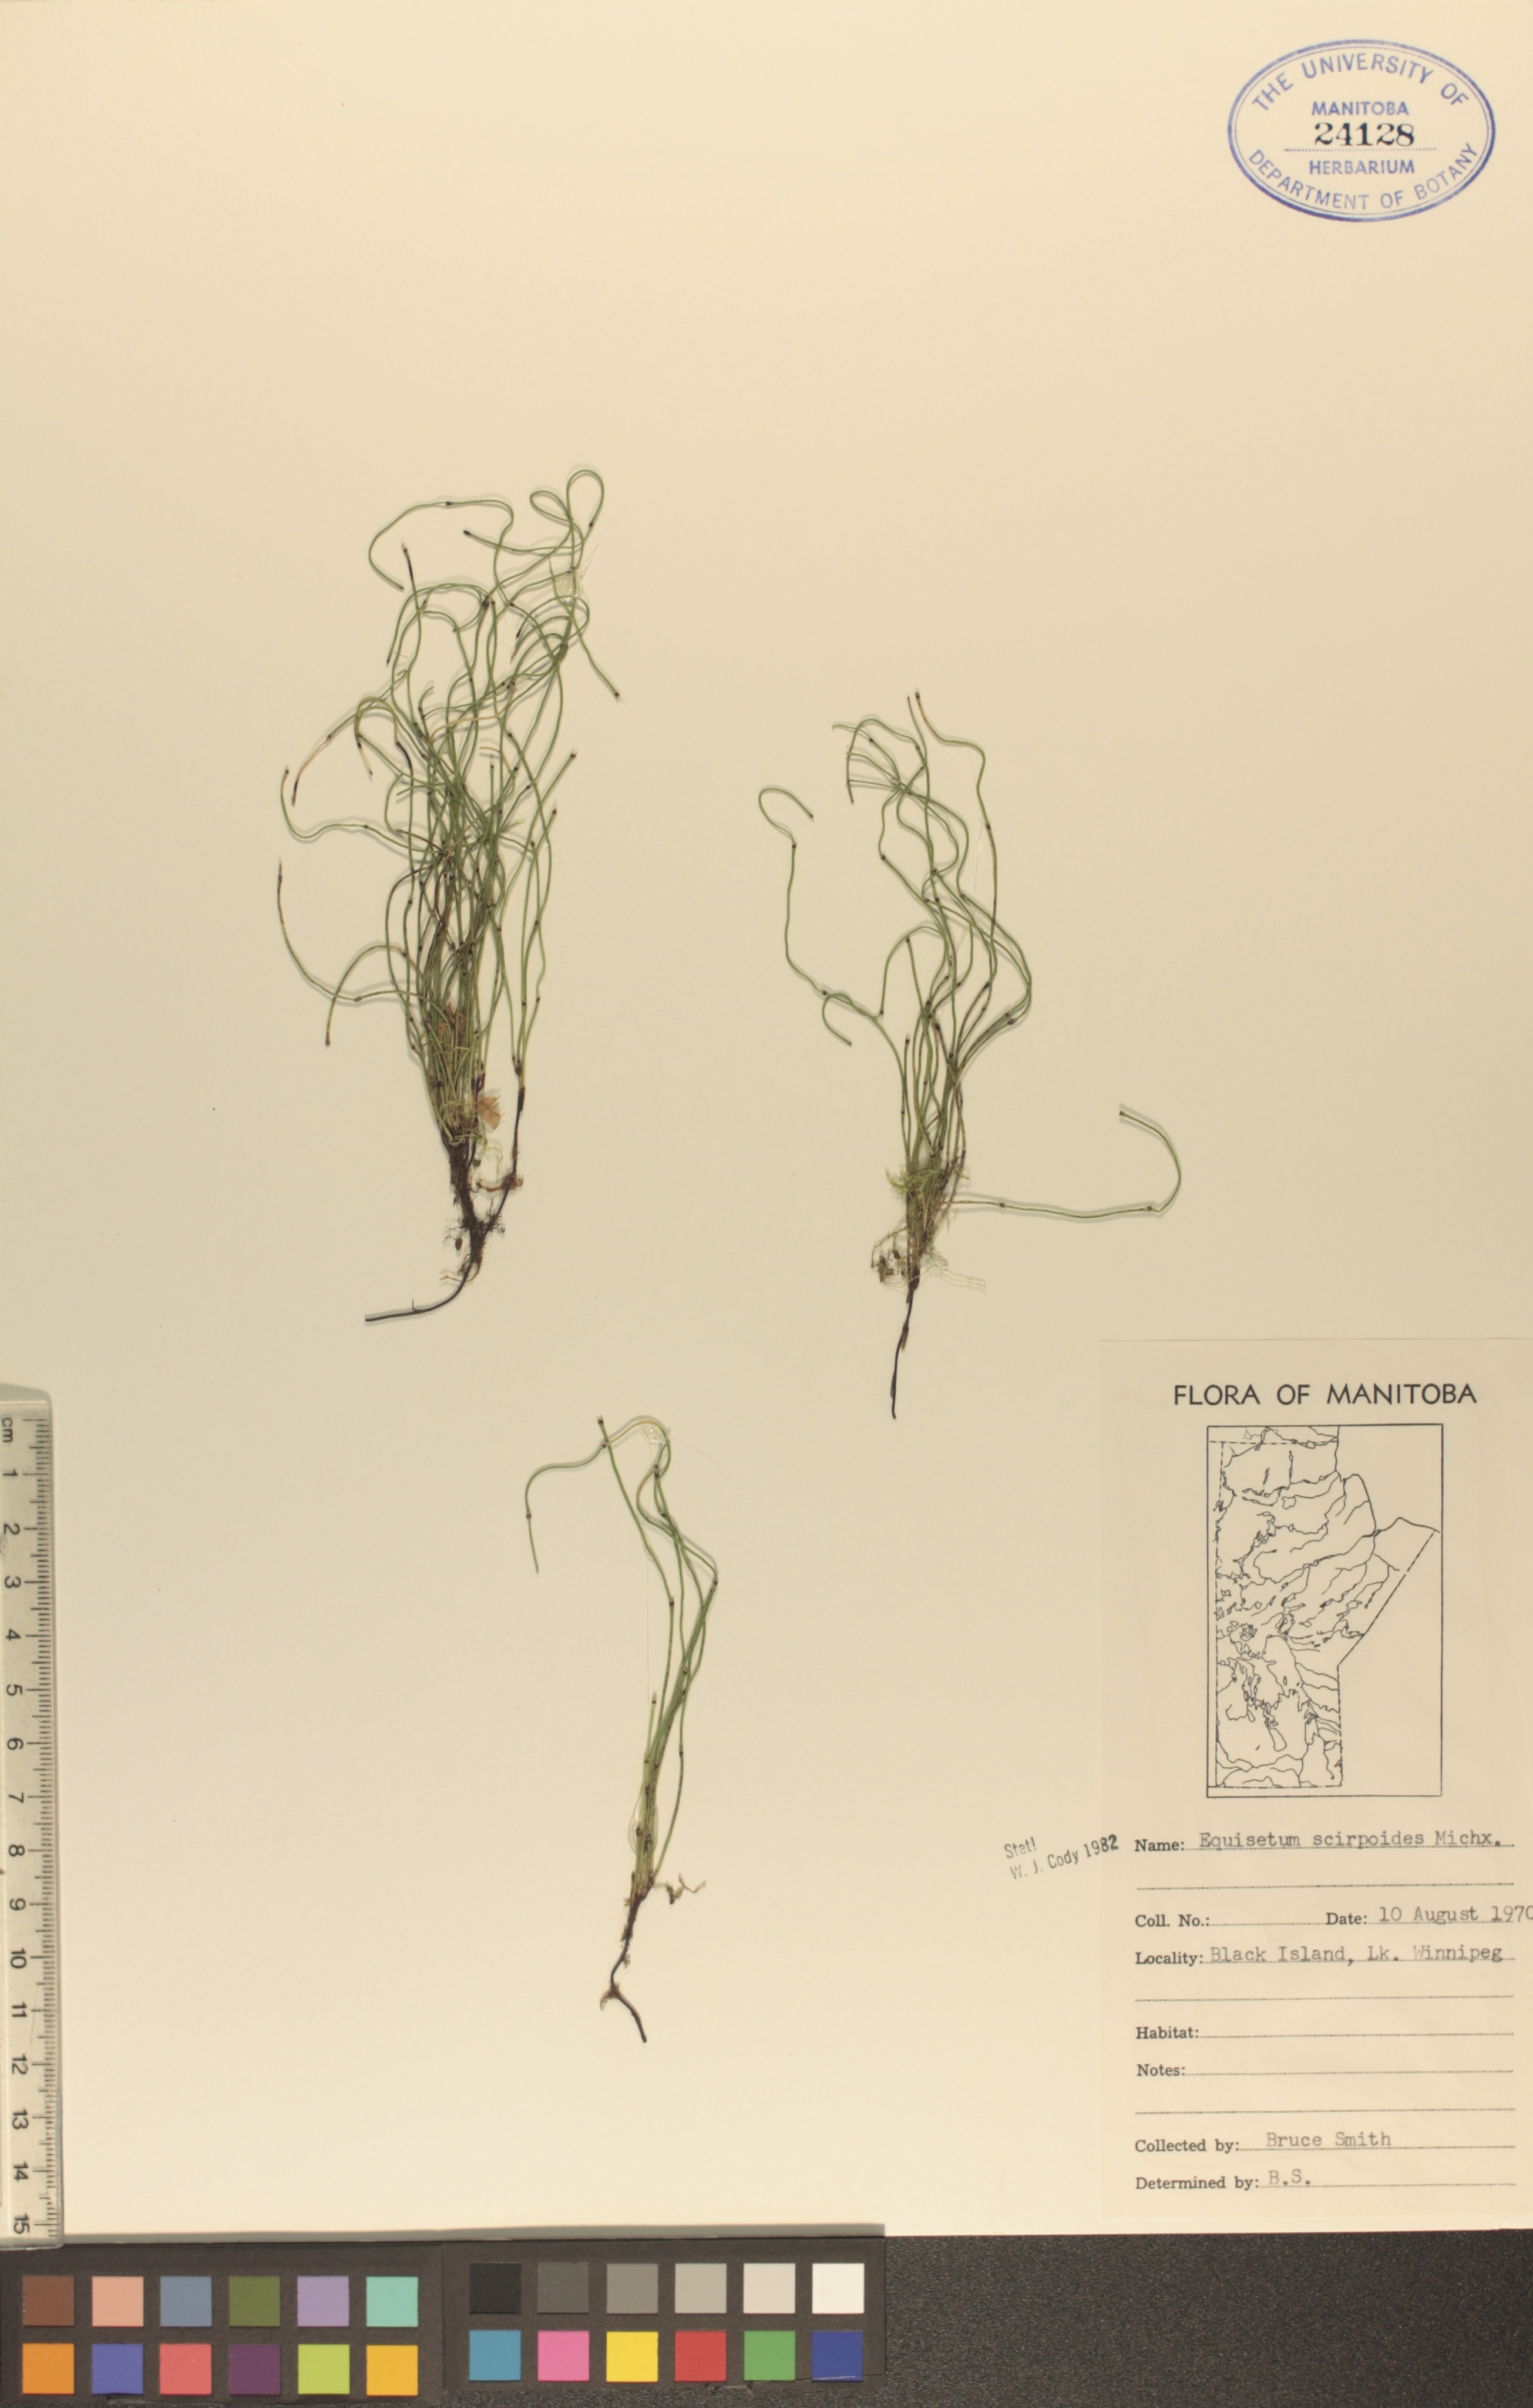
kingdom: Plantae
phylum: Tracheophyta
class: Polypodiopsida
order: Equisetales
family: Equisetaceae
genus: Equisetum
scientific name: Equisetum scirpoides
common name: Delicate horsetail
